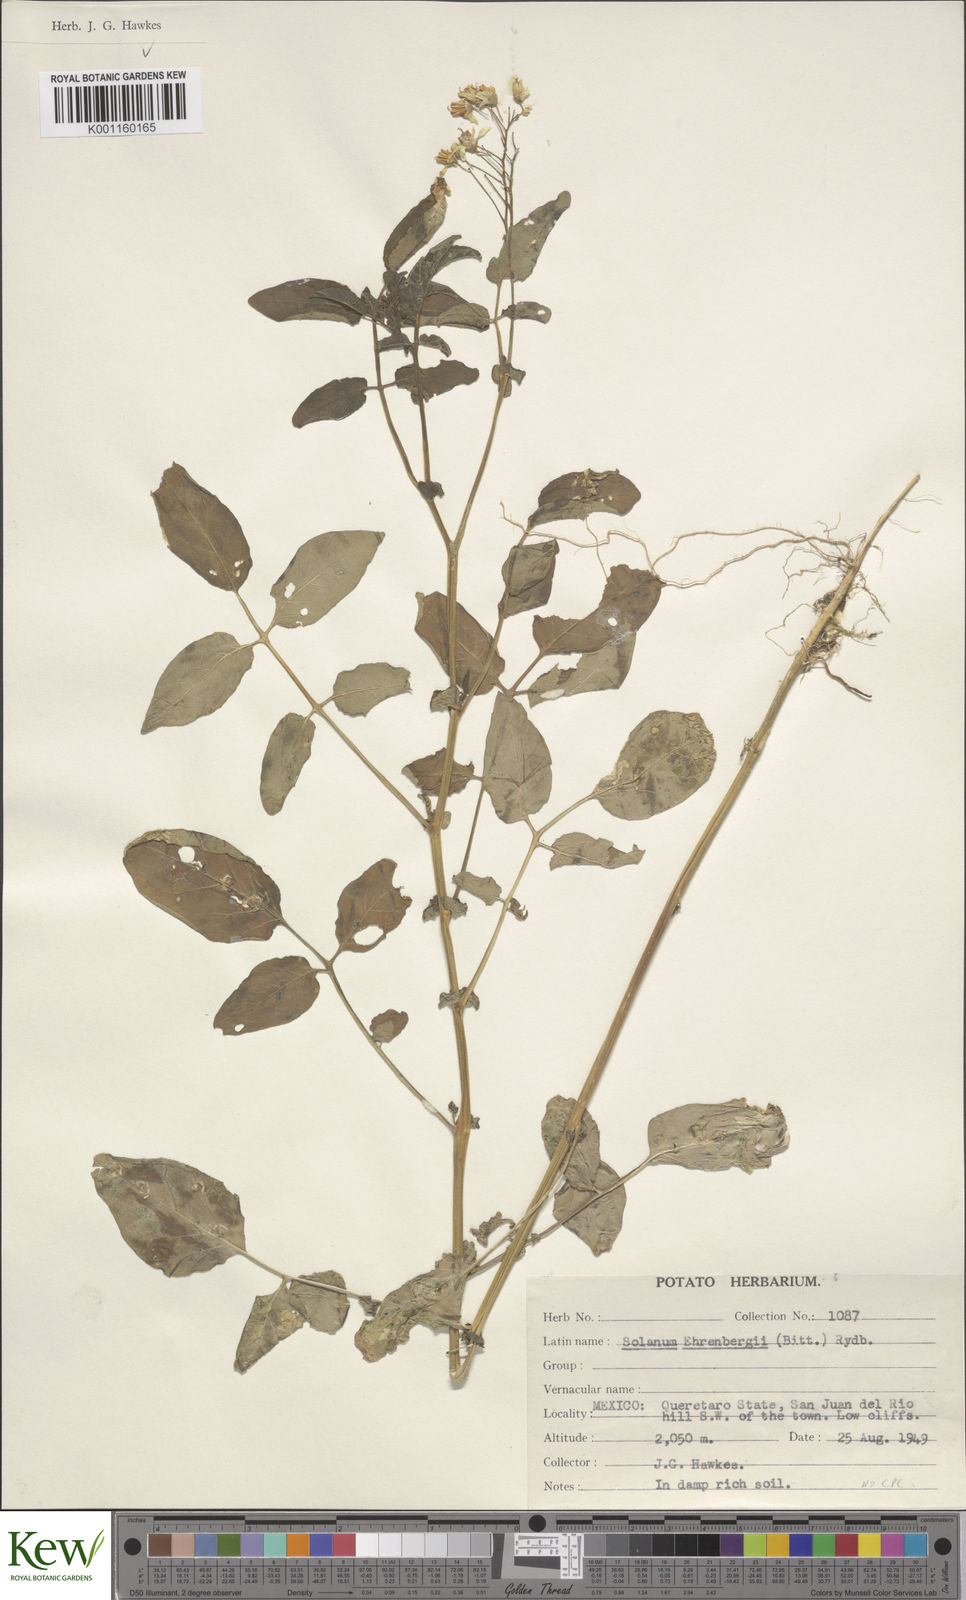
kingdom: Plantae
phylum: Tracheophyta
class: Magnoliopsida
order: Solanales
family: Solanaceae
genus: Solanum
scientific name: Solanum cardiophyllum
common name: Heartleaf horsenettle
